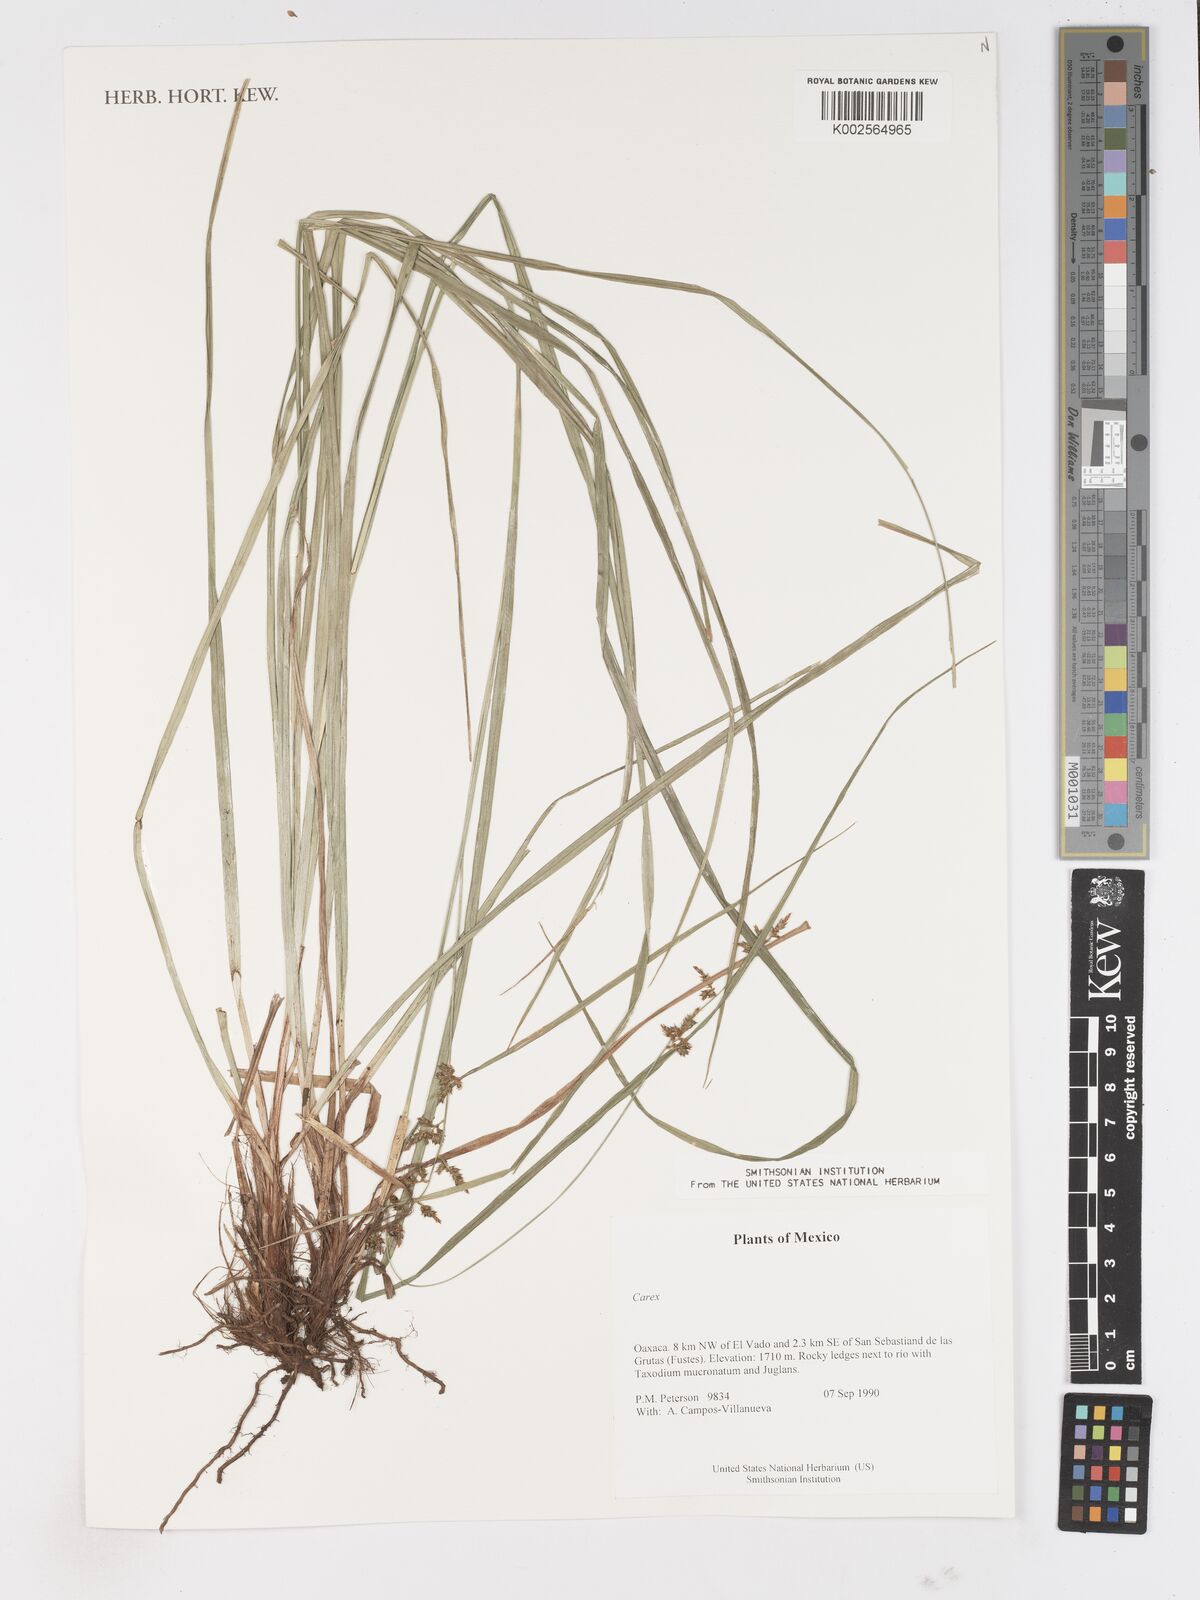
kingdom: Plantae
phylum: Tracheophyta
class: Liliopsida
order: Poales
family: Cyperaceae
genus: Carex
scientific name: Carex
